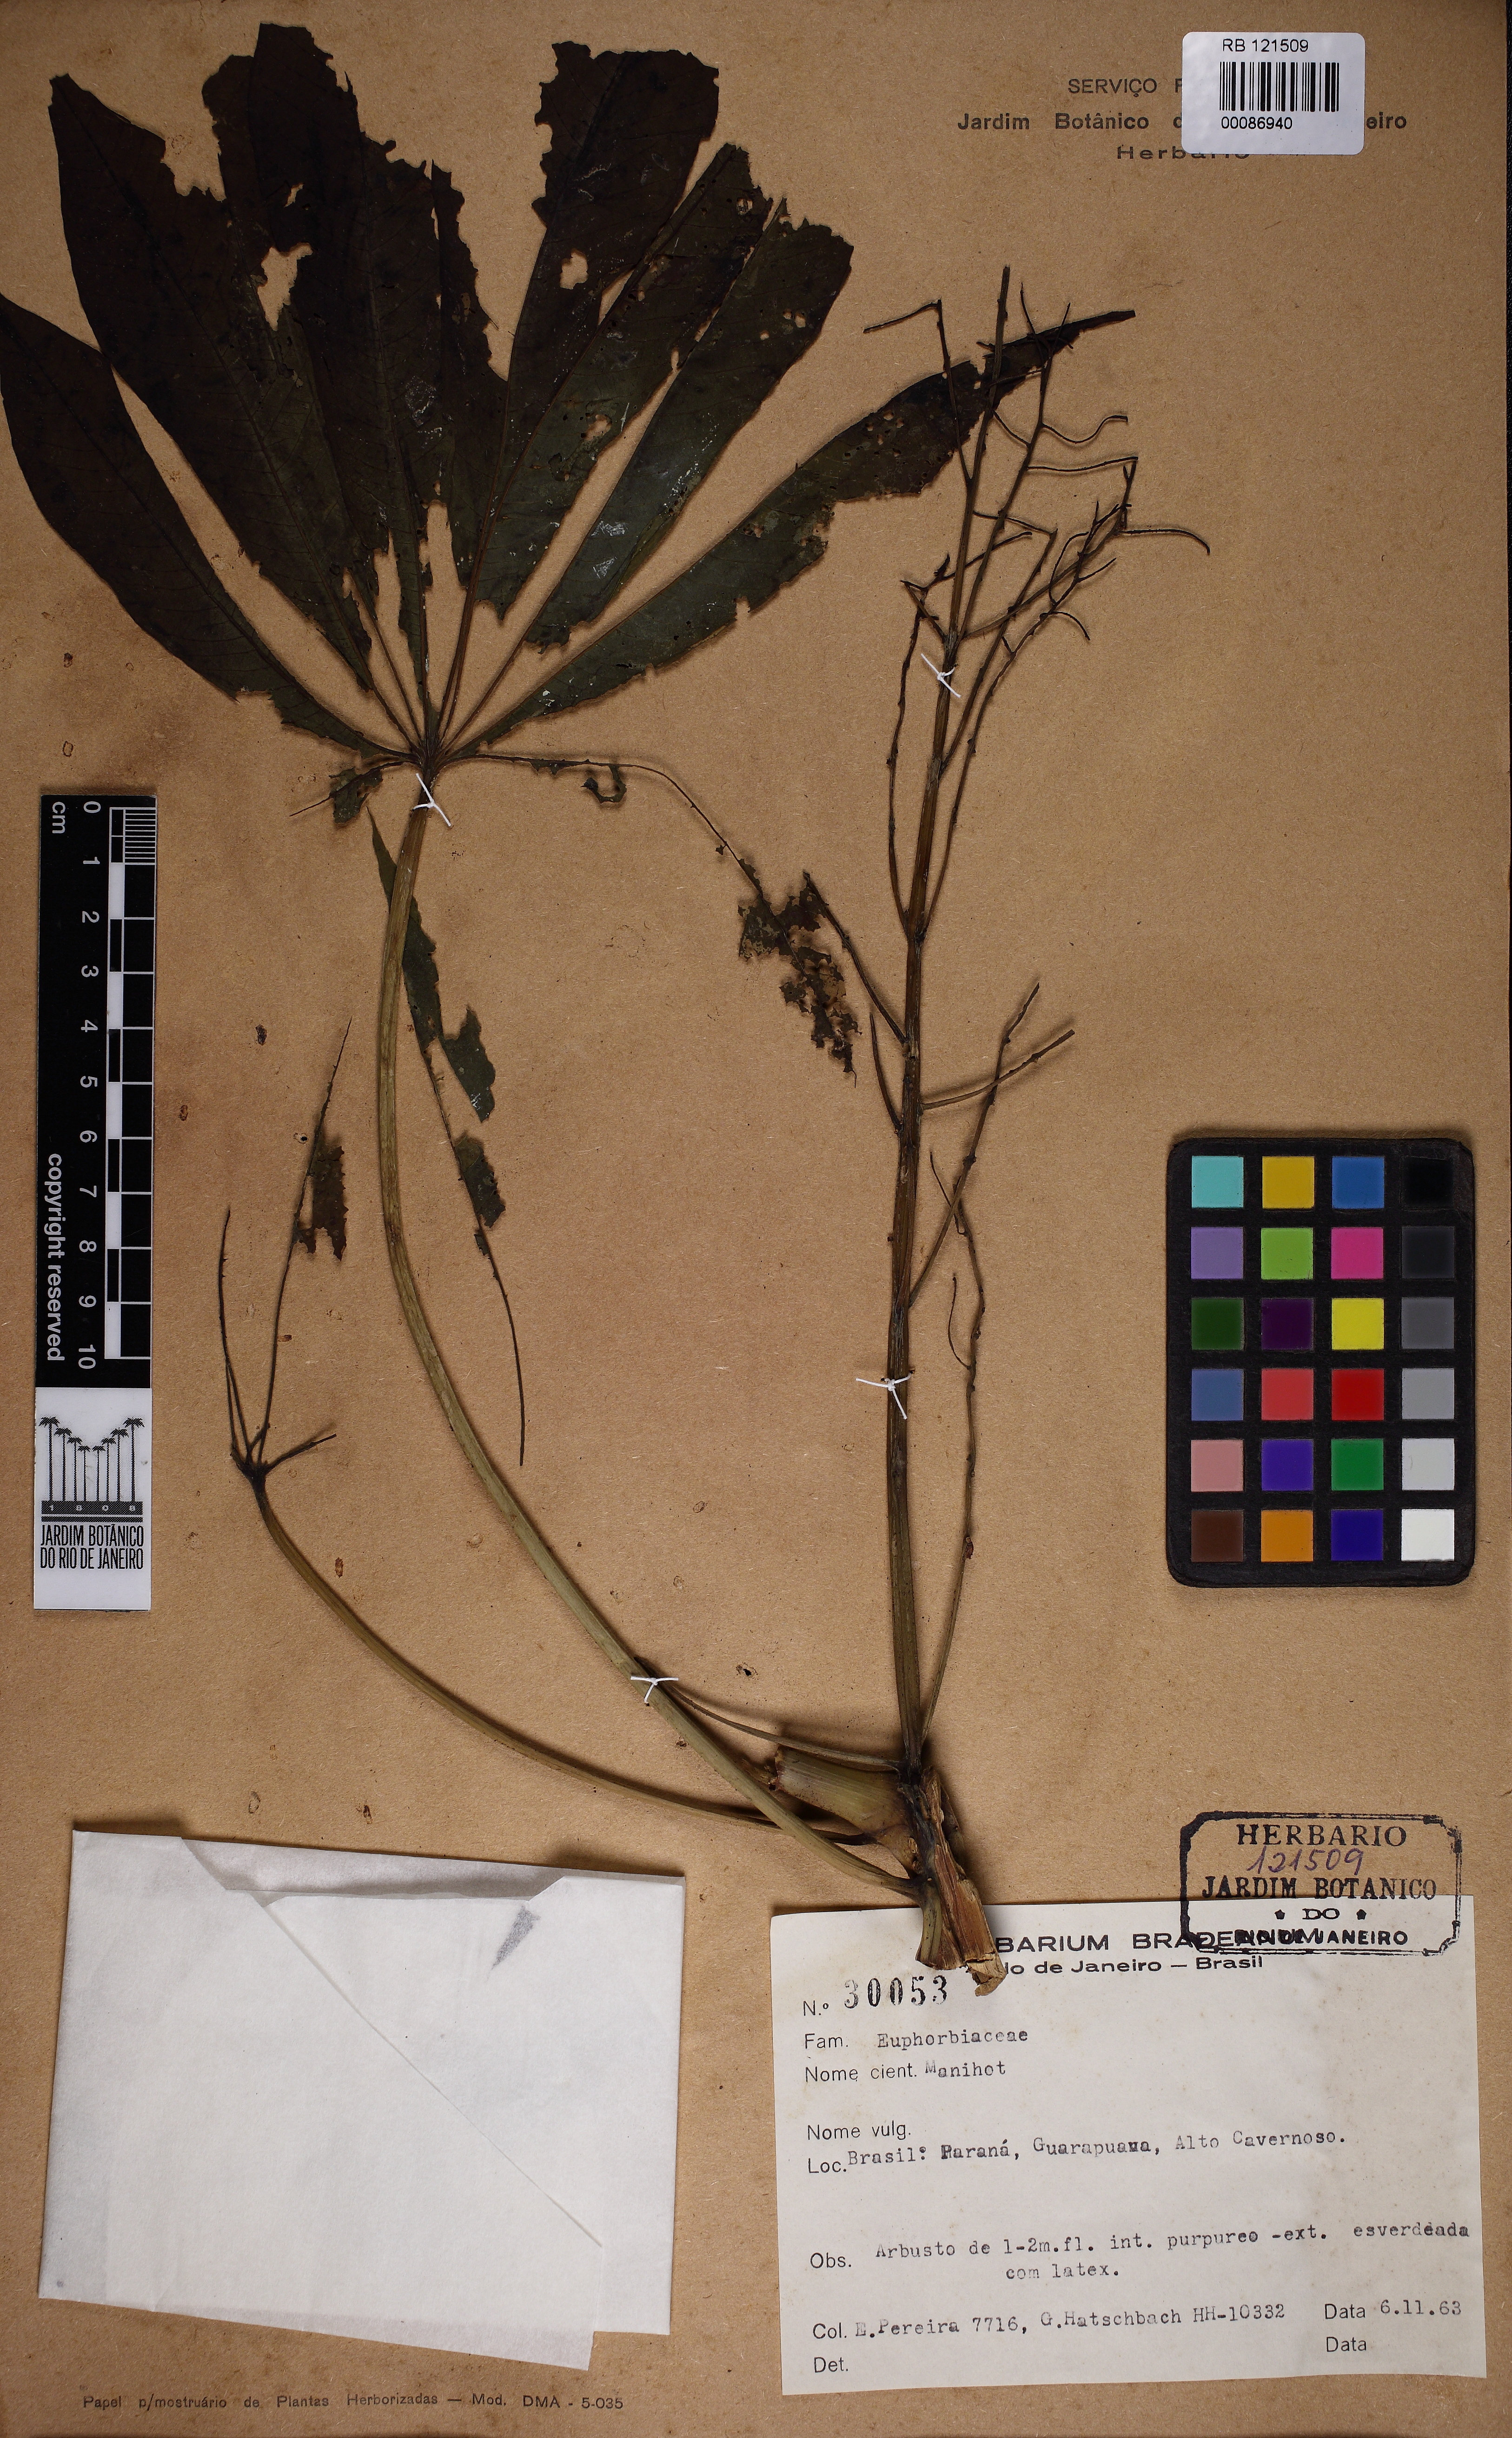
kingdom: Plantae
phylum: Tracheophyta
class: Magnoliopsida
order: Malpighiales
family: Euphorbiaceae
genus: Manihot
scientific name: Manihot grahamii
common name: Graham's manihot
